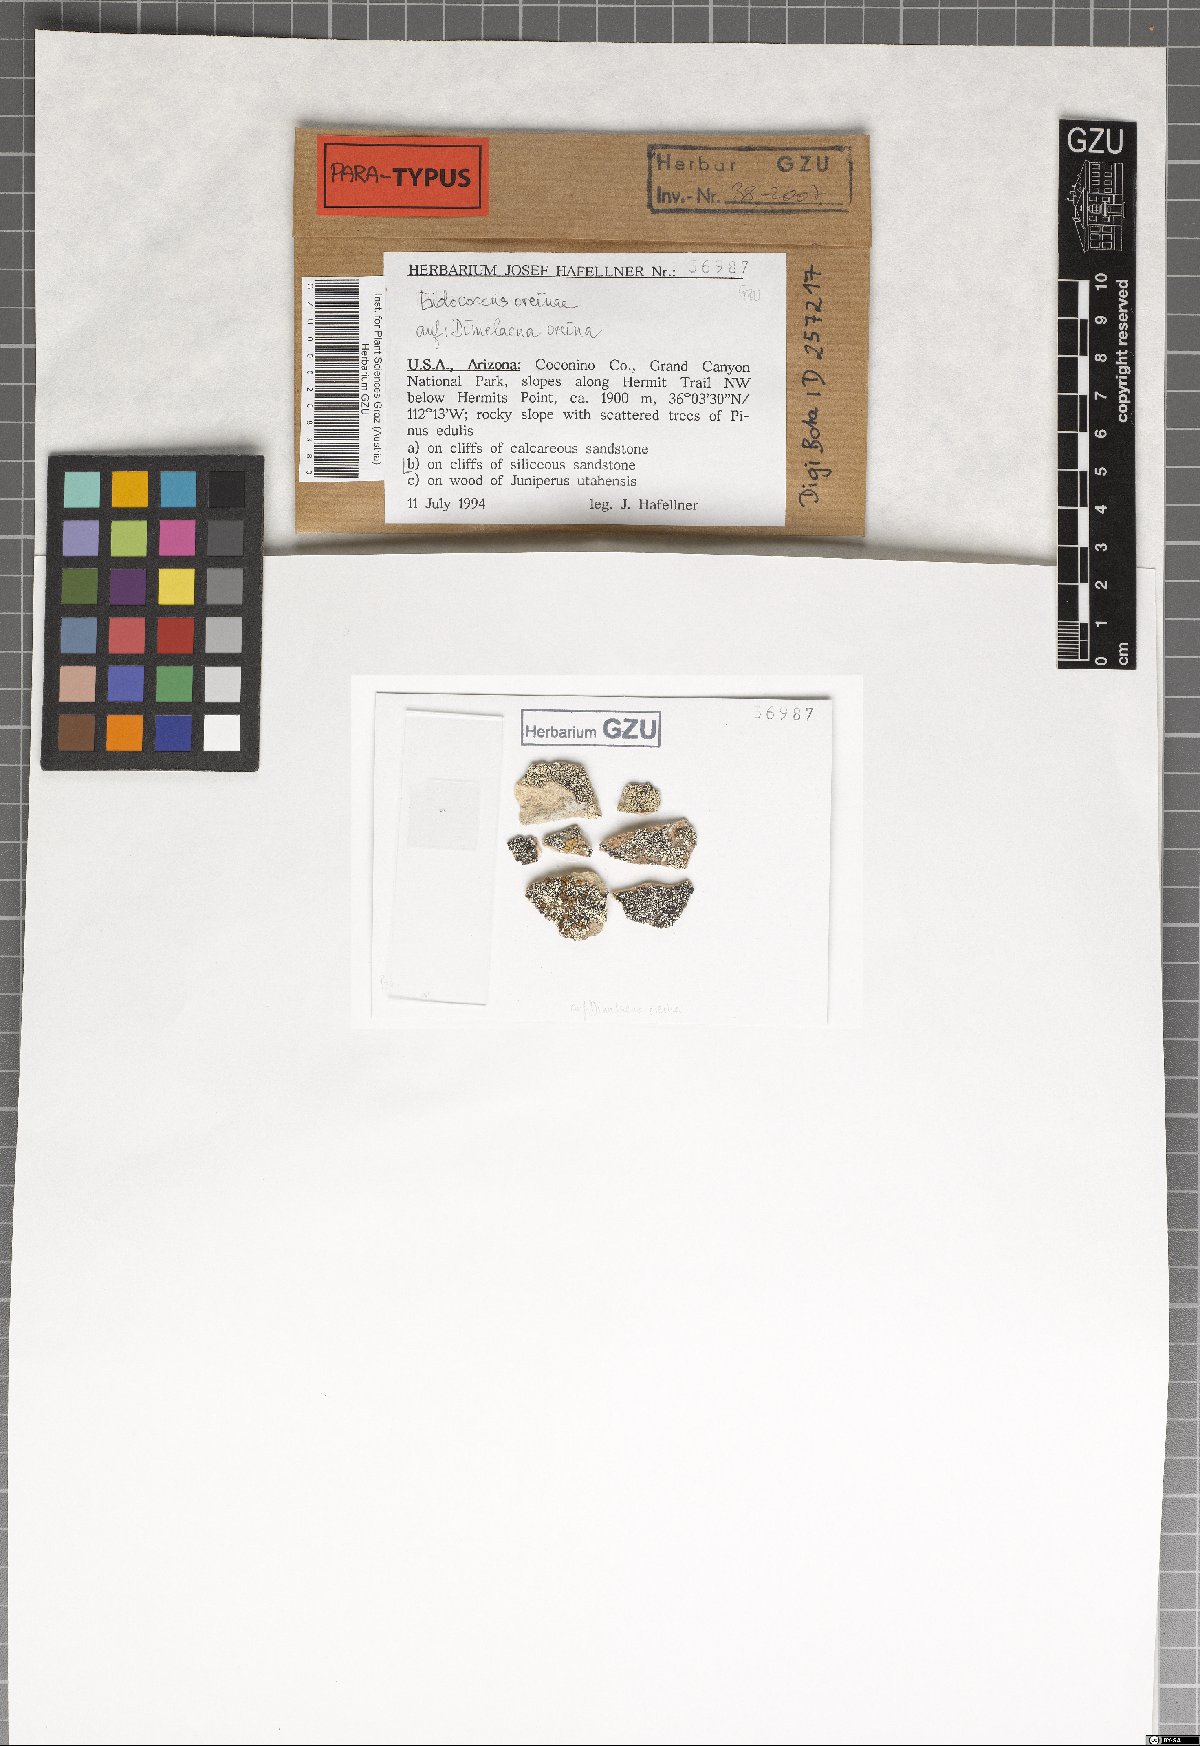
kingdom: Fungi
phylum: Ascomycota
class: Dothideomycetes
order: Dothideales
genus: Endococcus
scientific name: Endococcus oreinae
